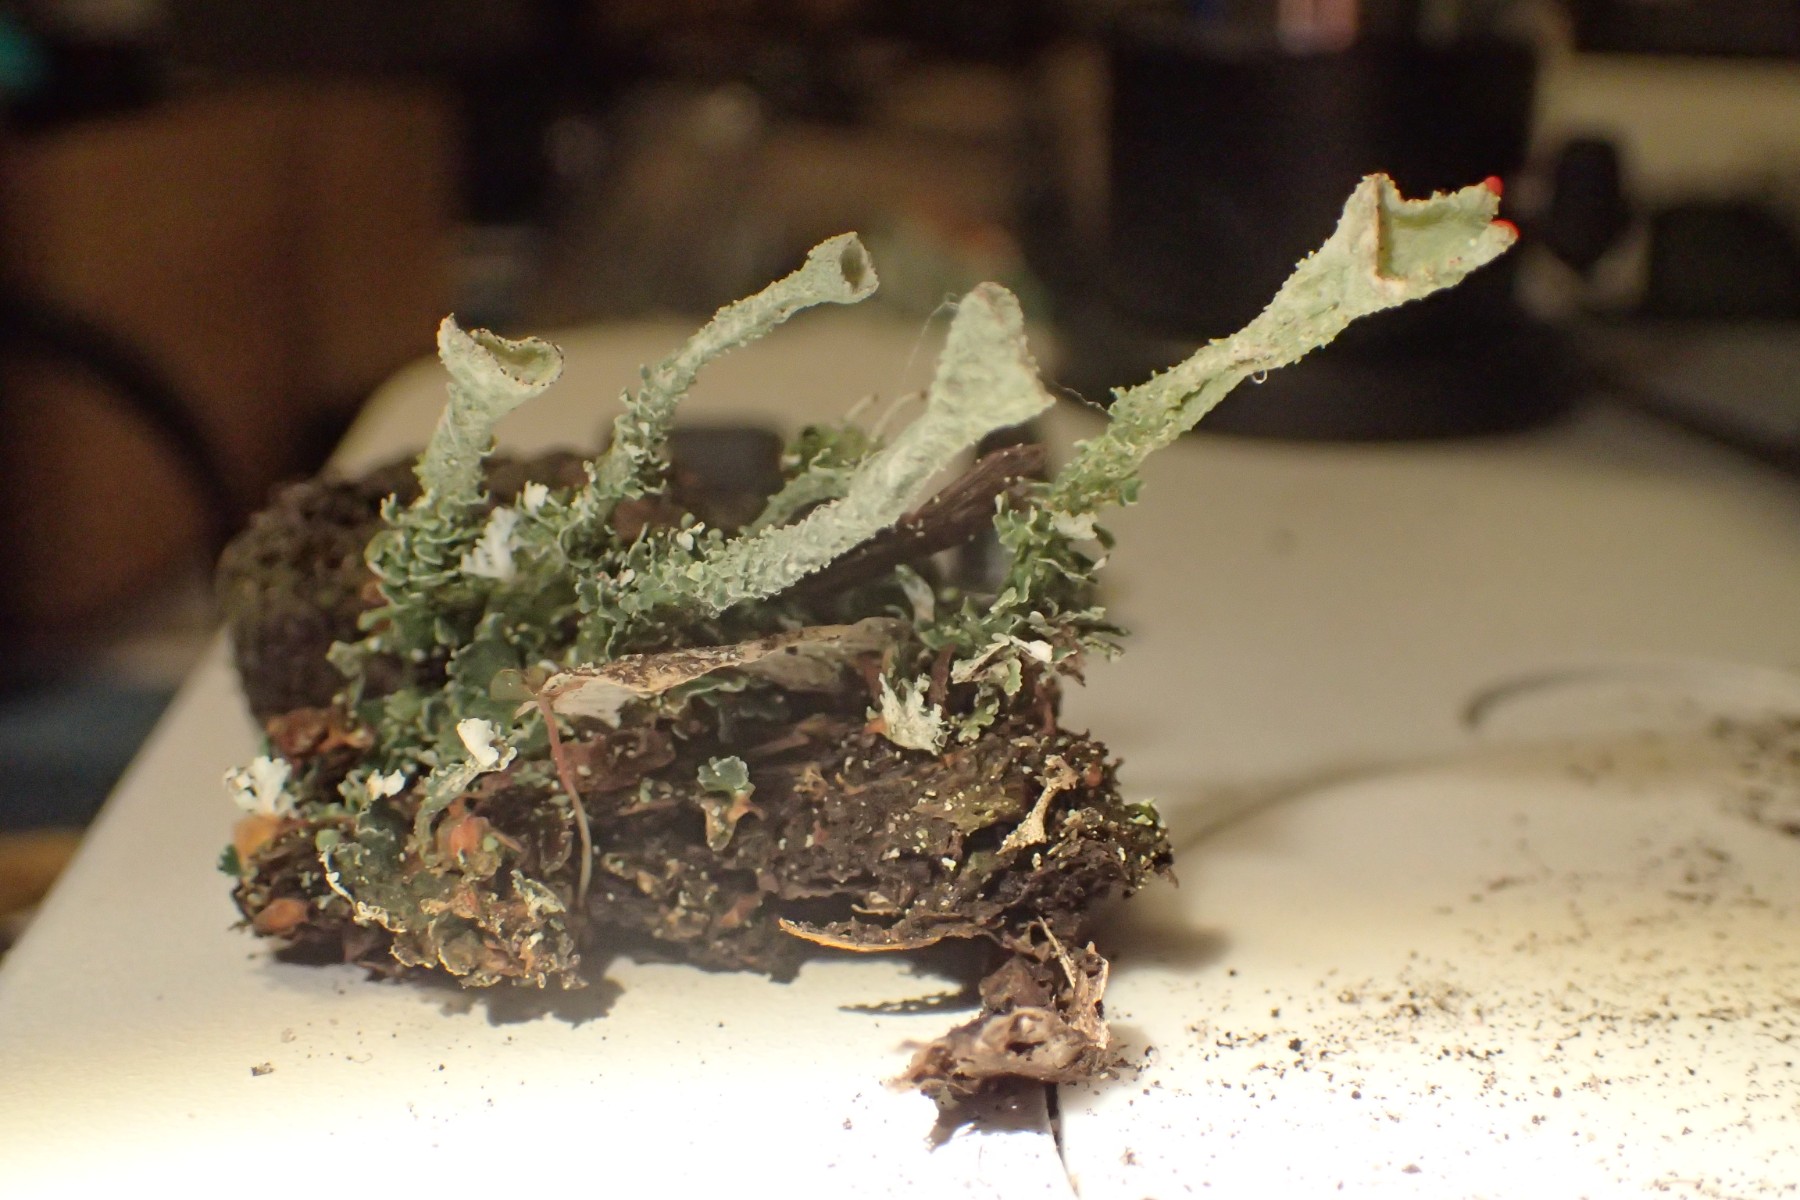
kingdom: Fungi
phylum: Ascomycota
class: Lecanoromycetes
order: Lecanorales
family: Cladoniaceae
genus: Cladonia
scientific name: Cladonia diversa
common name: rød bægerlav
